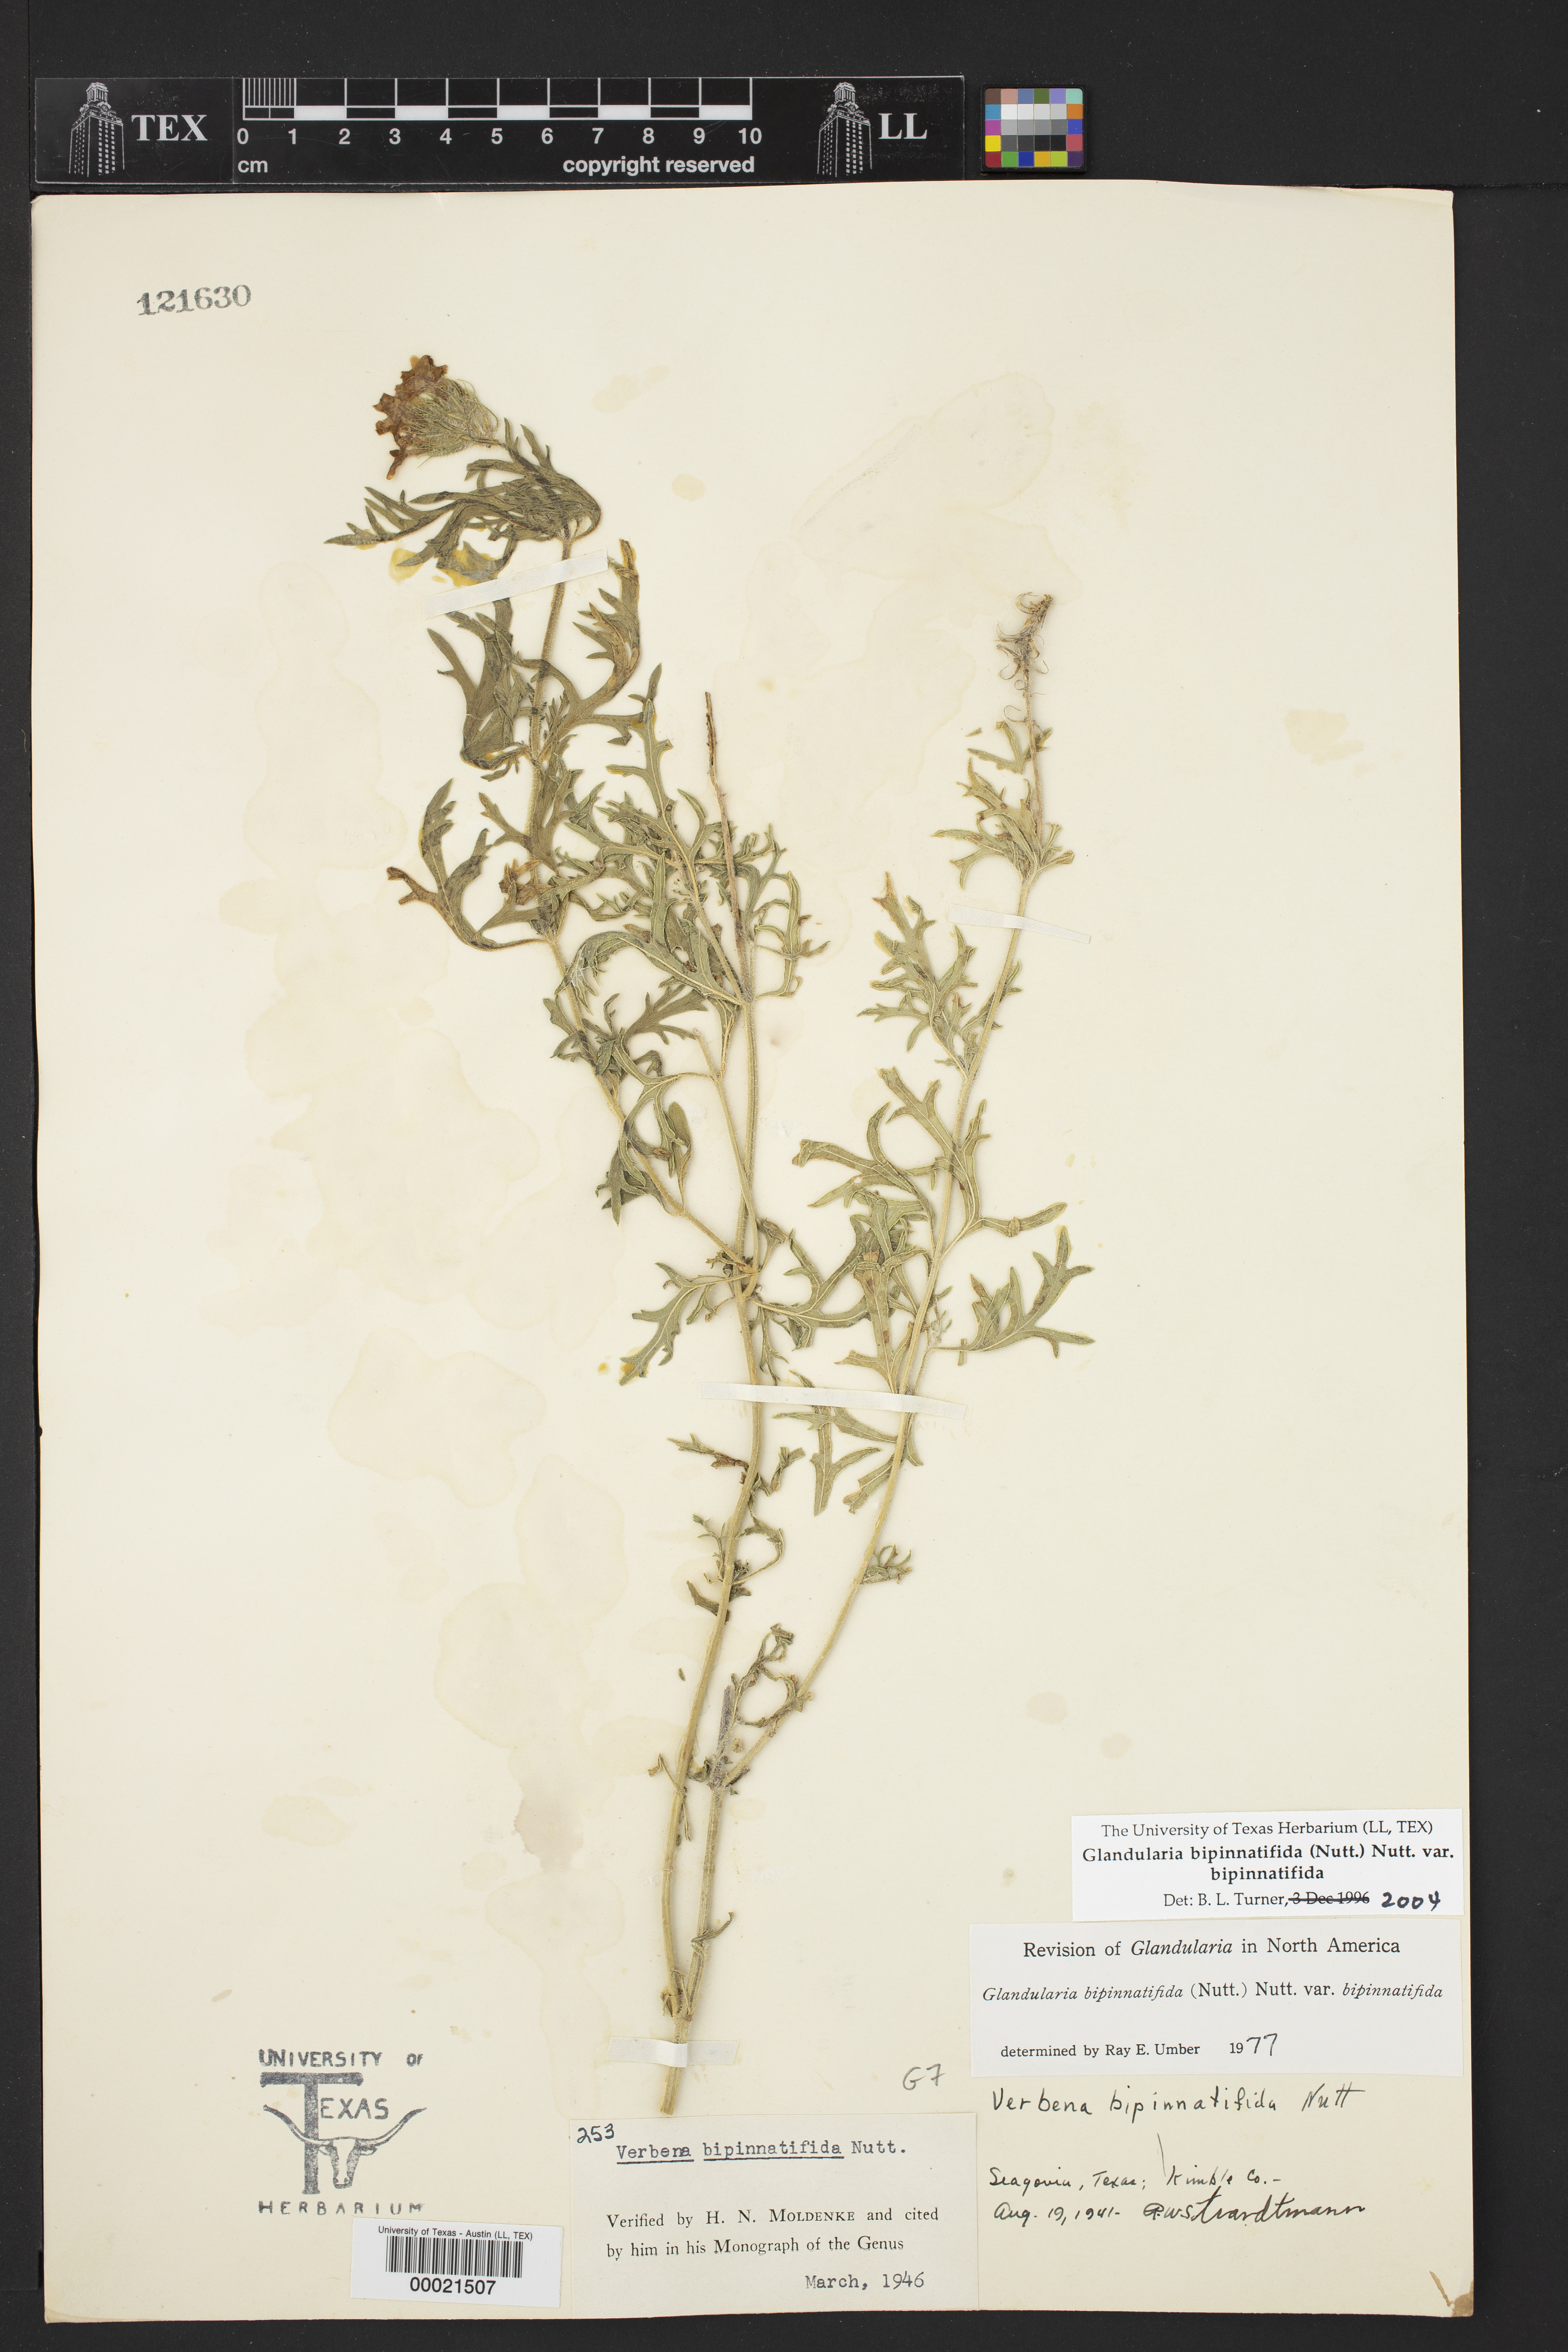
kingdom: Plantae
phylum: Tracheophyta
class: Magnoliopsida
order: Lamiales
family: Verbenaceae
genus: Verbena
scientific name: Verbena bipinnatifida
